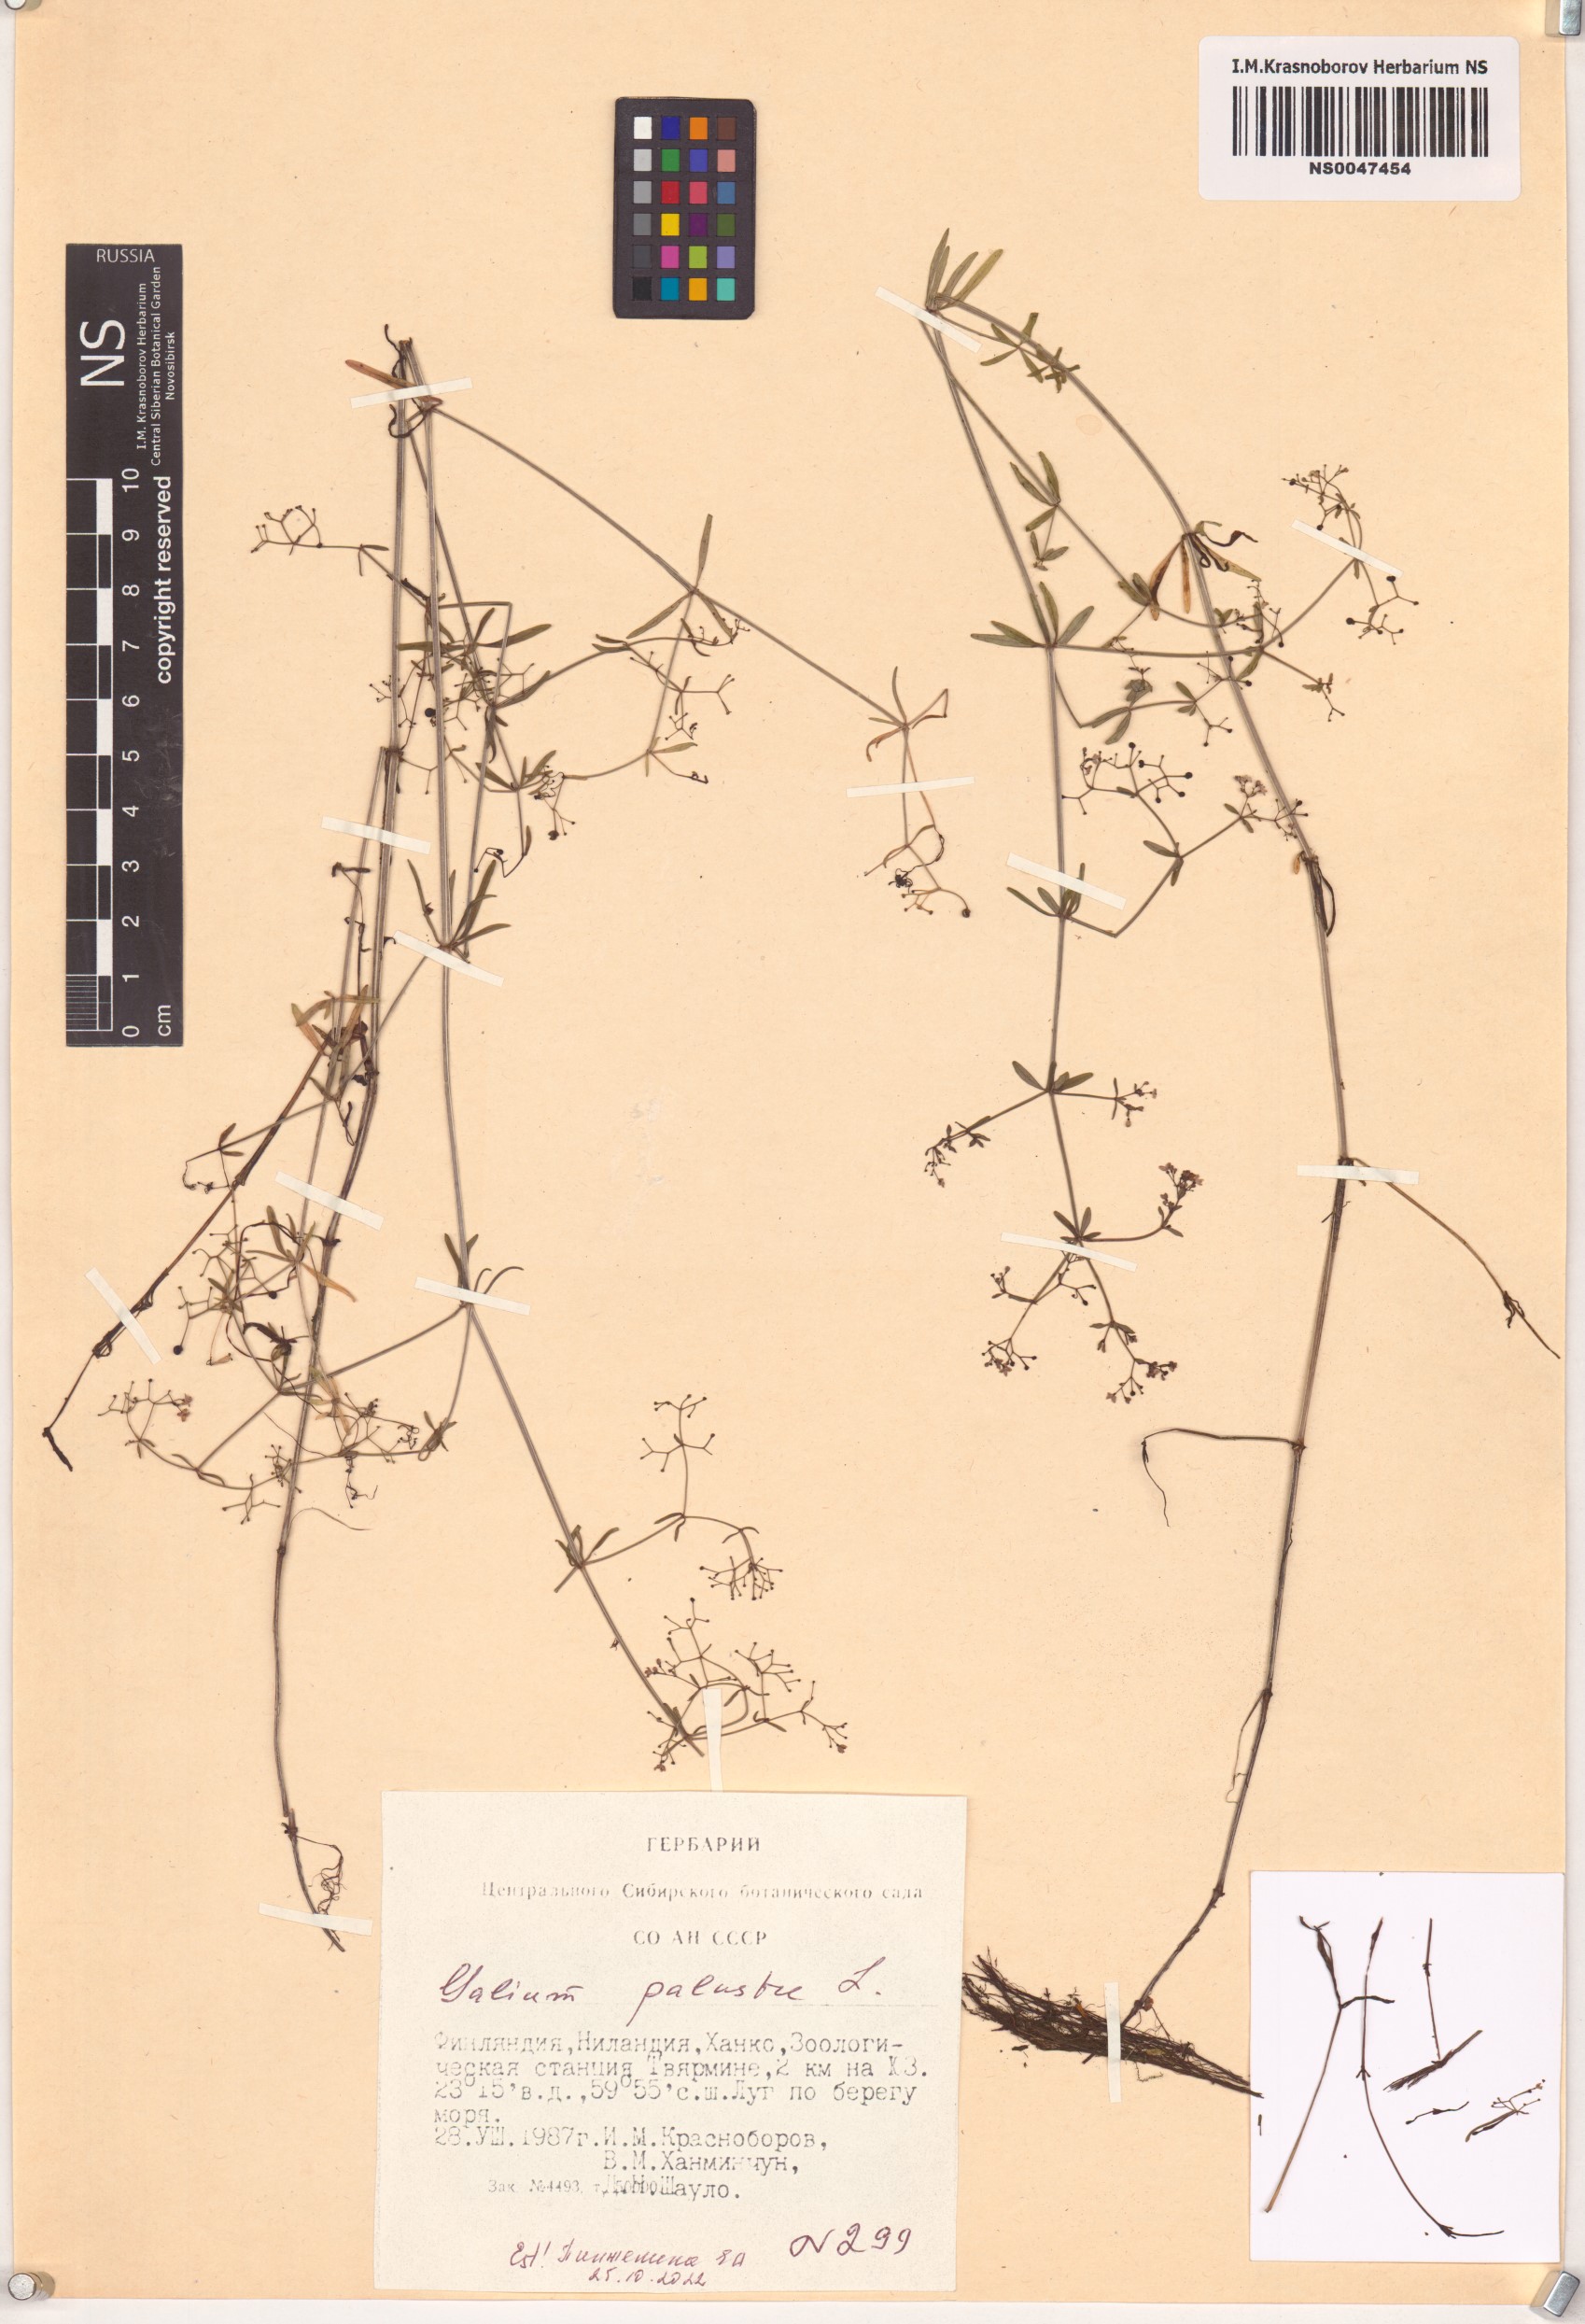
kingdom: Plantae
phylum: Tracheophyta
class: Magnoliopsida
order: Gentianales
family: Rubiaceae
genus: Galium
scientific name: Galium palustre
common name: Common marsh-bedstraw
